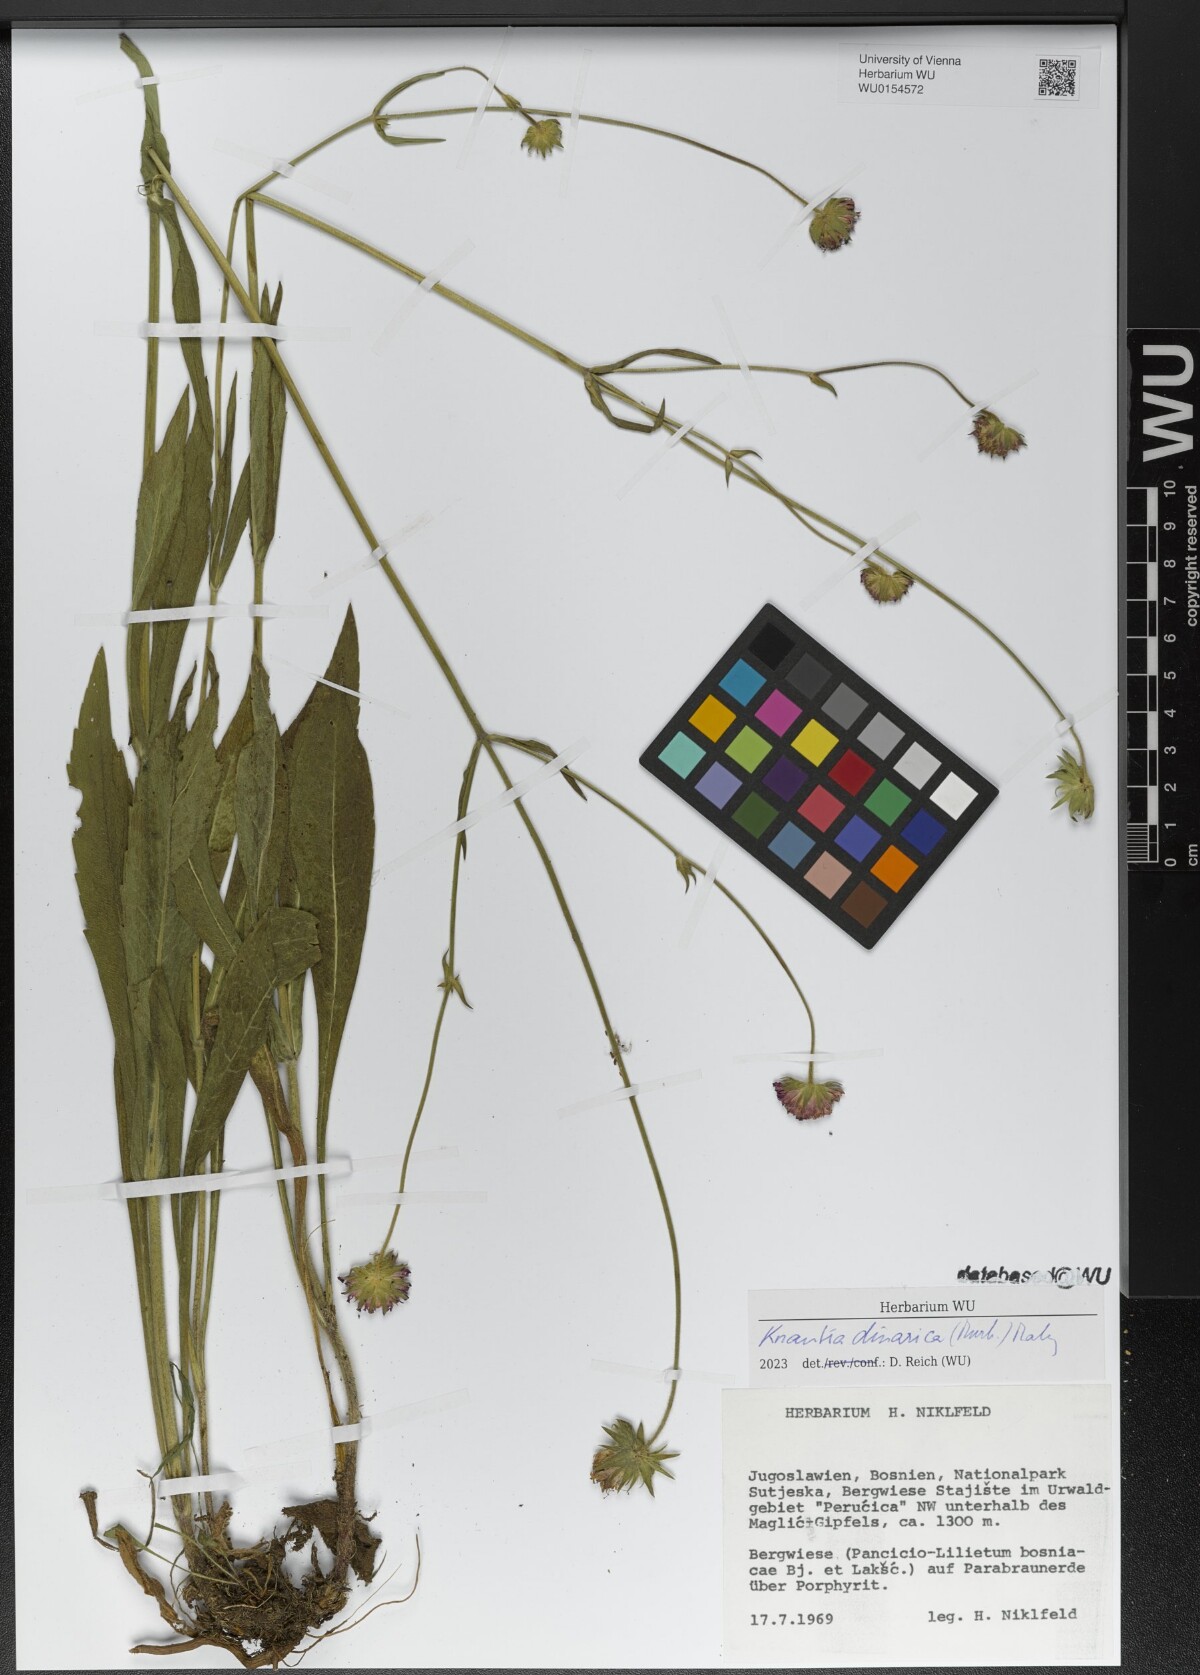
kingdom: Plantae
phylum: Tracheophyta
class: Magnoliopsida
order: Dipsacales
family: Caprifoliaceae
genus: Knautia
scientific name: Knautia dinarica
